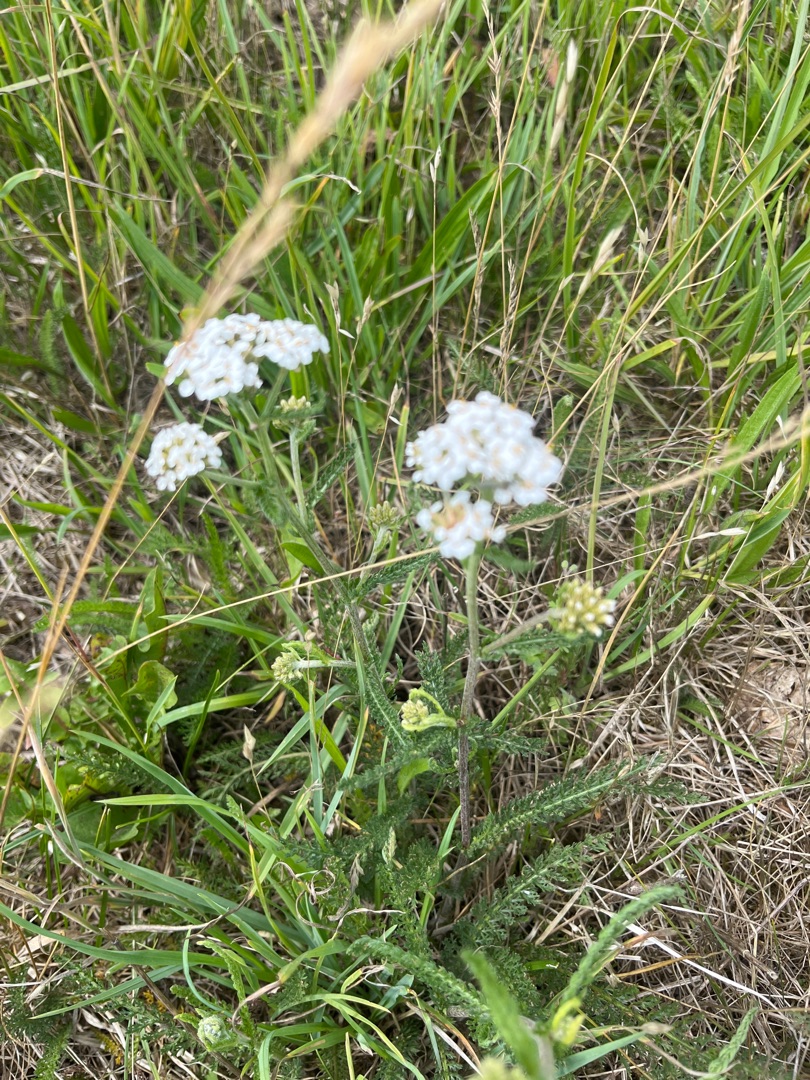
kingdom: Plantae
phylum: Tracheophyta
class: Magnoliopsida
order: Asterales
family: Asteraceae
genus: Achillea
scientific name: Achillea millefolium
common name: Almindelig røllike
